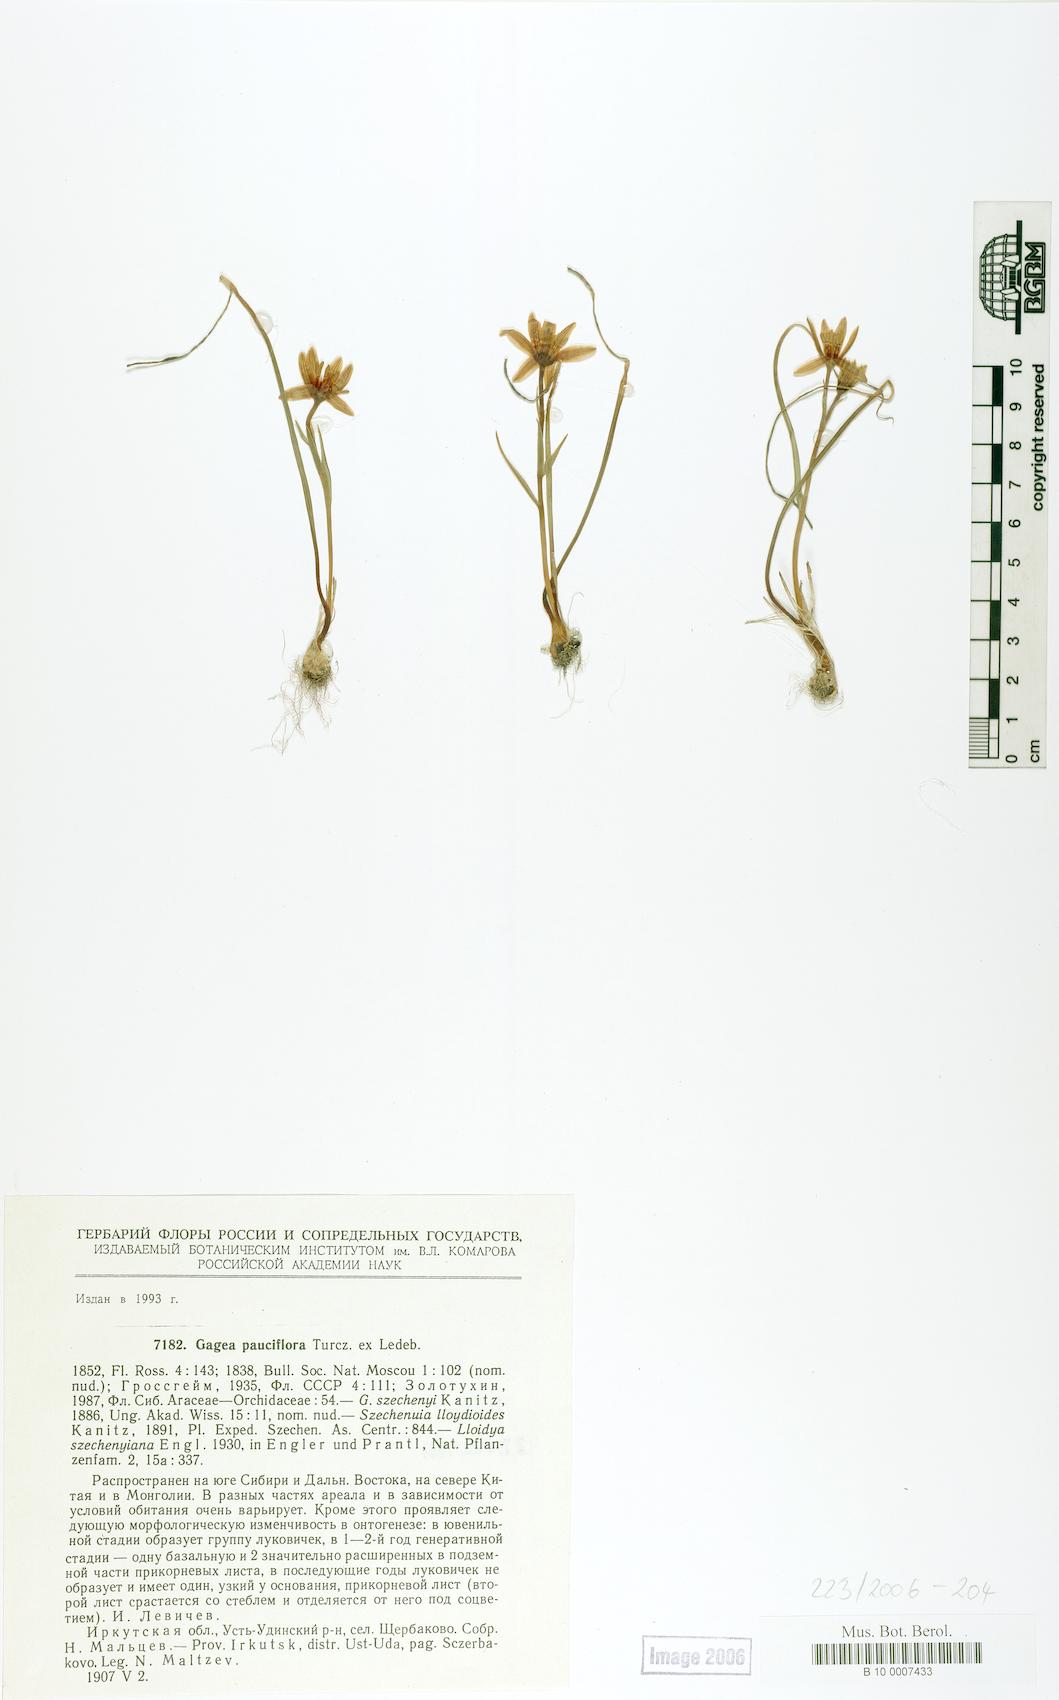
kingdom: Plantae
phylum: Tracheophyta
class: Liliopsida
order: Liliales
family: Liliaceae
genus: Gagea
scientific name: Gagea pauciflora
